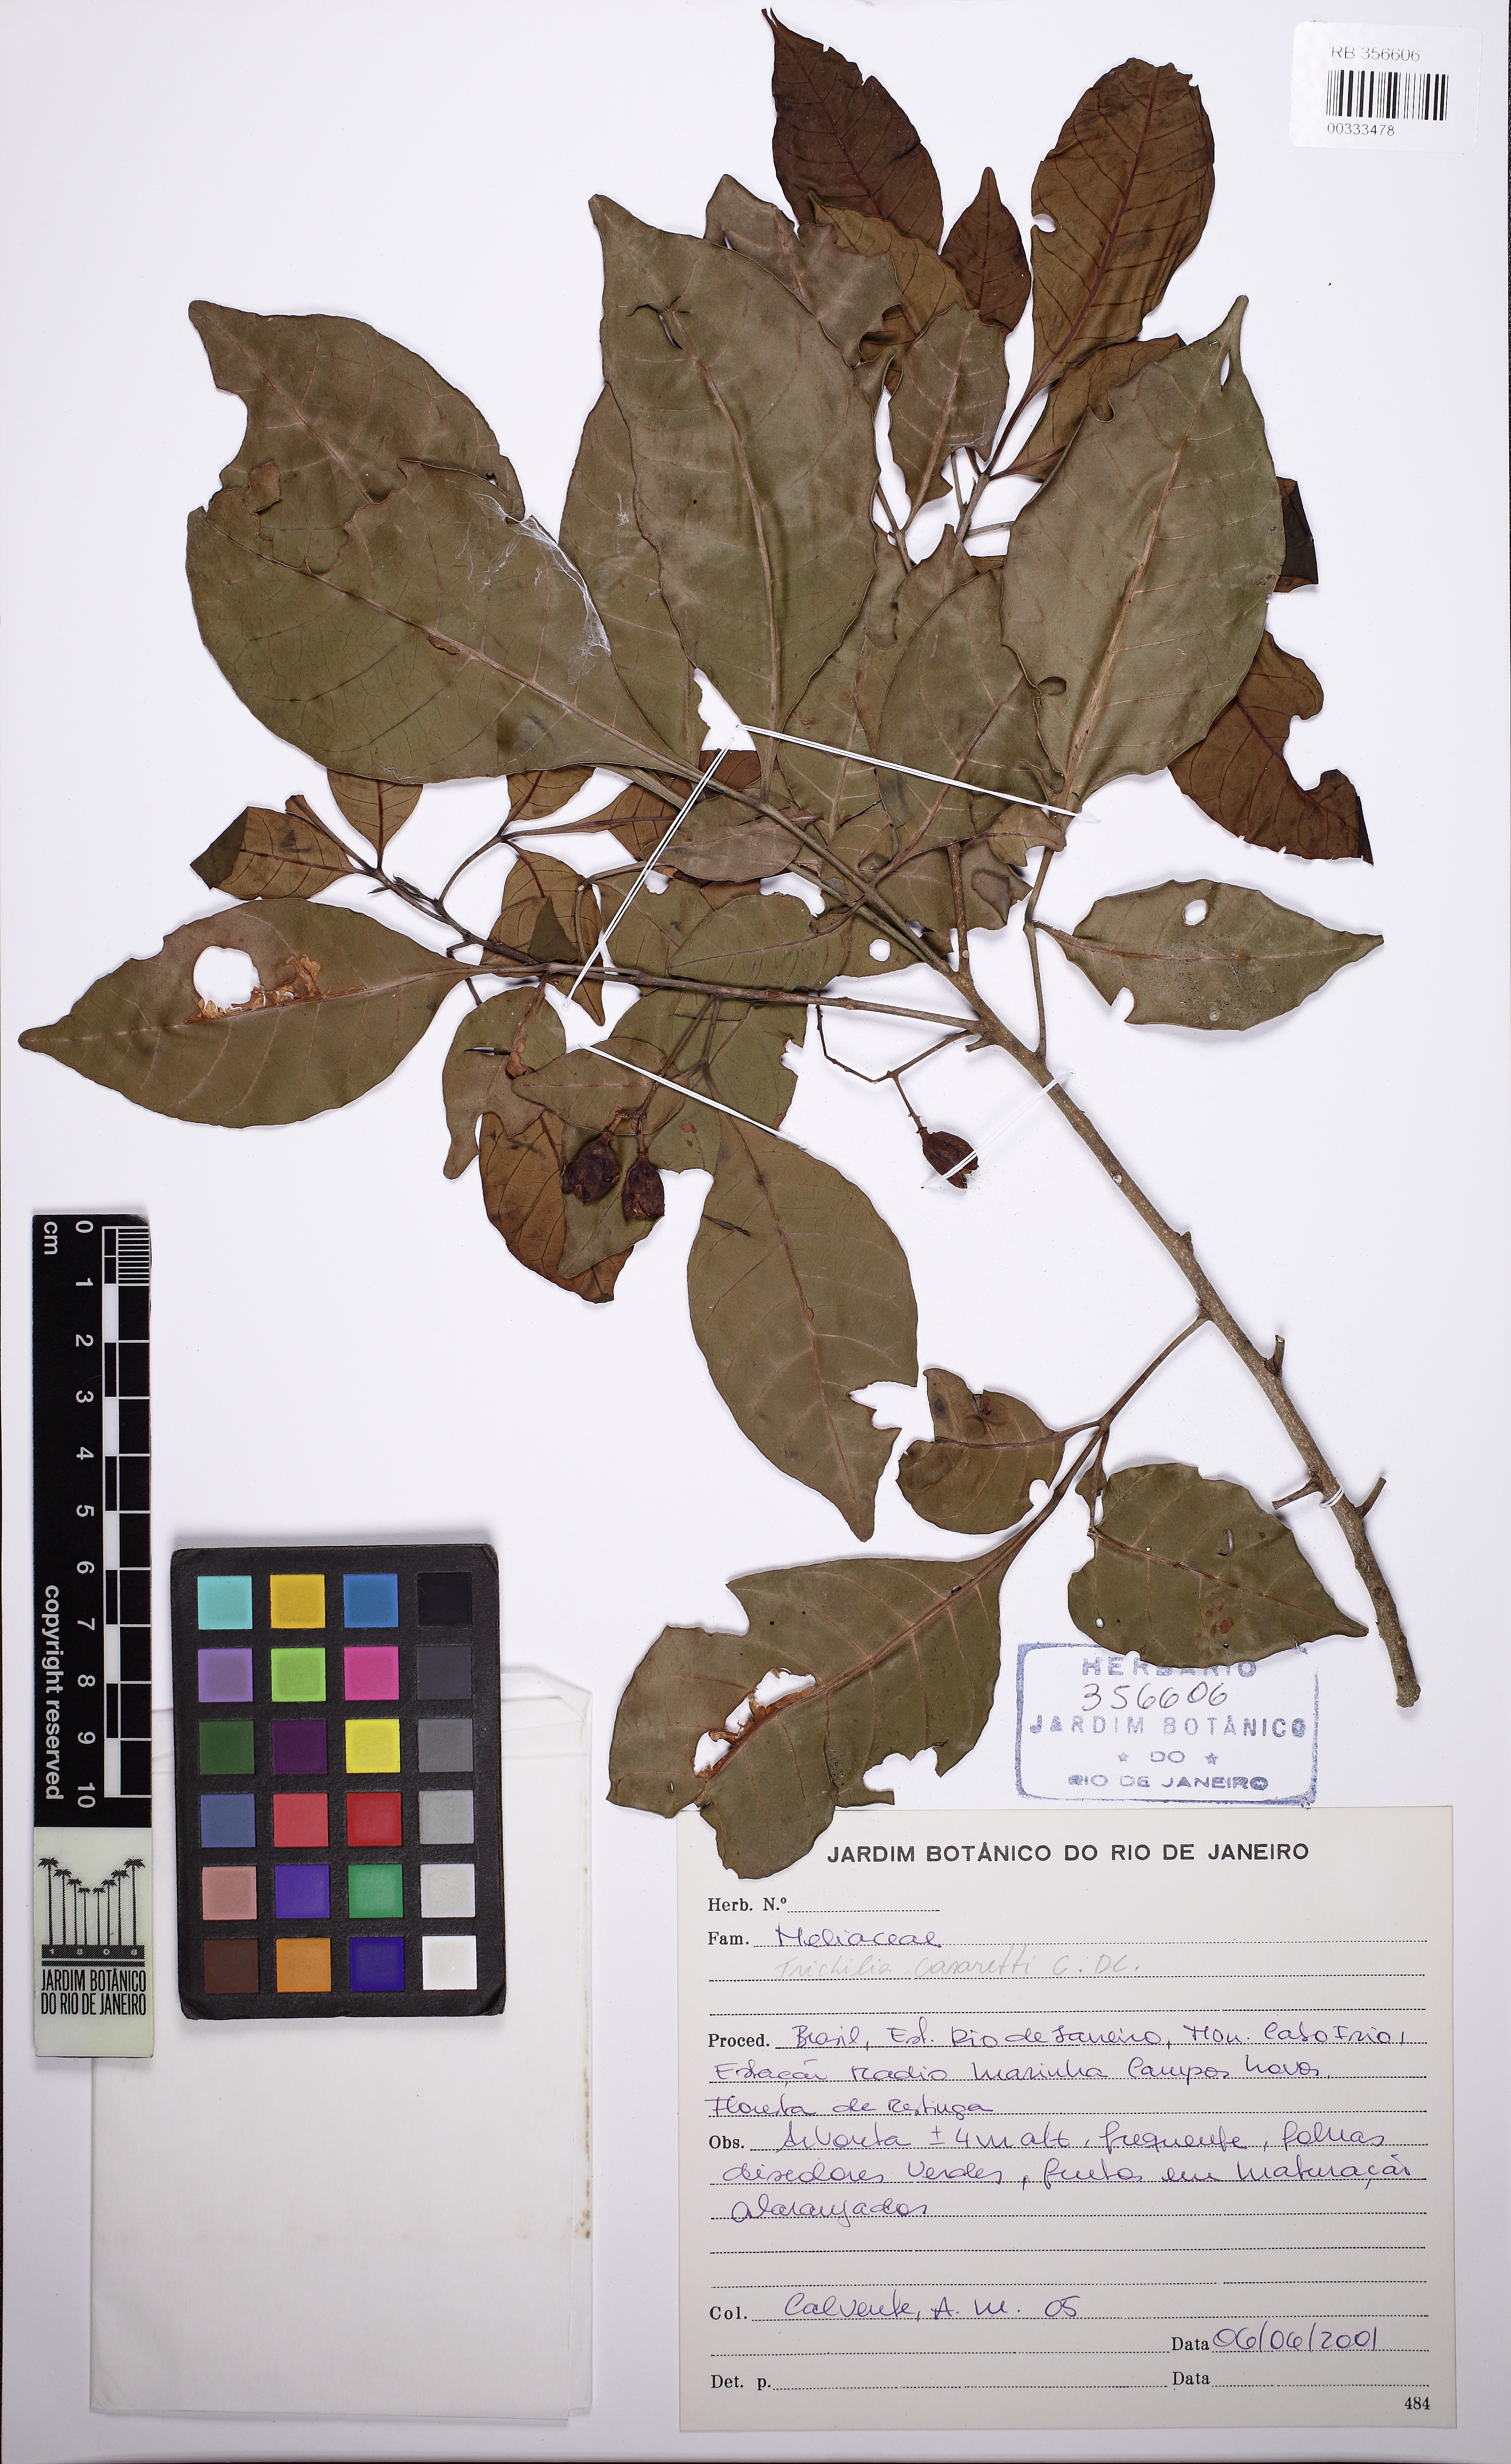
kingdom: Plantae
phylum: Tracheophyta
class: Magnoliopsida
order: Sapindales
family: Meliaceae
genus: Trichilia
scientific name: Trichilia casaretti
